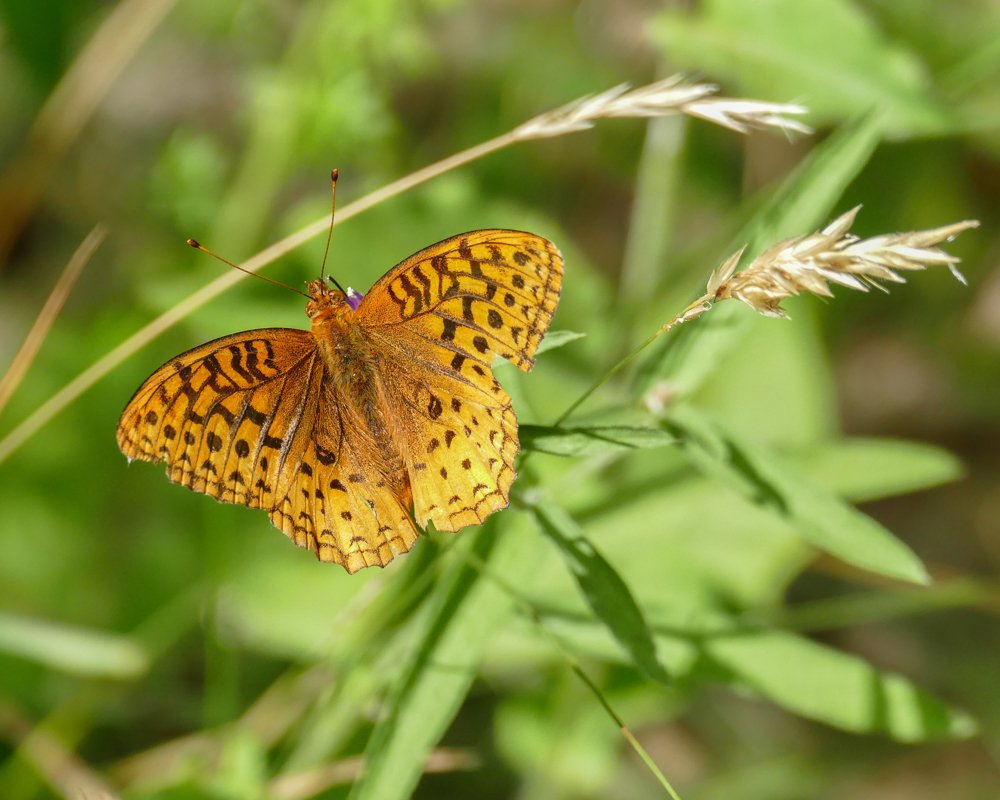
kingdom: Animalia
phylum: Arthropoda
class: Insecta
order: Lepidoptera
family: Nymphalidae
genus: Speyeria
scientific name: Speyeria cybele
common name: Great Spangled Fritillary
